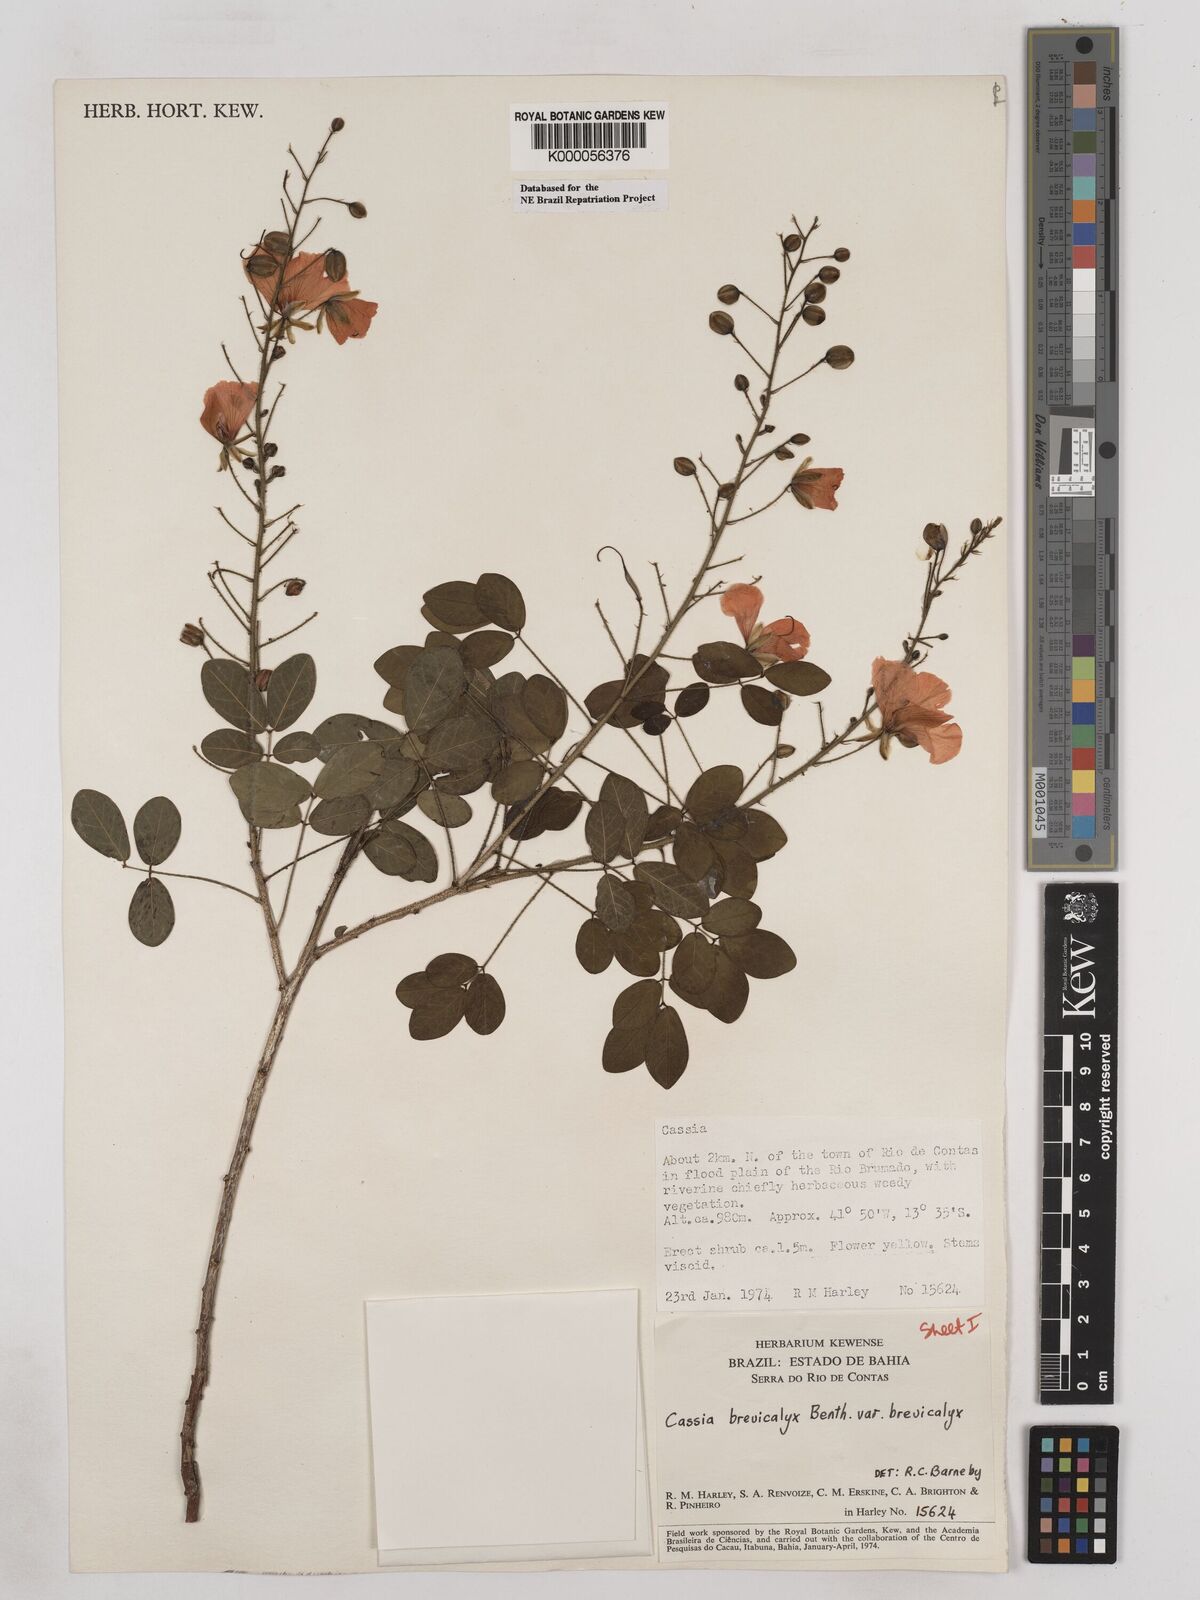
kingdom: Plantae
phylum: Tracheophyta
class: Magnoliopsida
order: Fabales
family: Fabaceae
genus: Chamaecrista
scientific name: Chamaecrista brevicalyx
